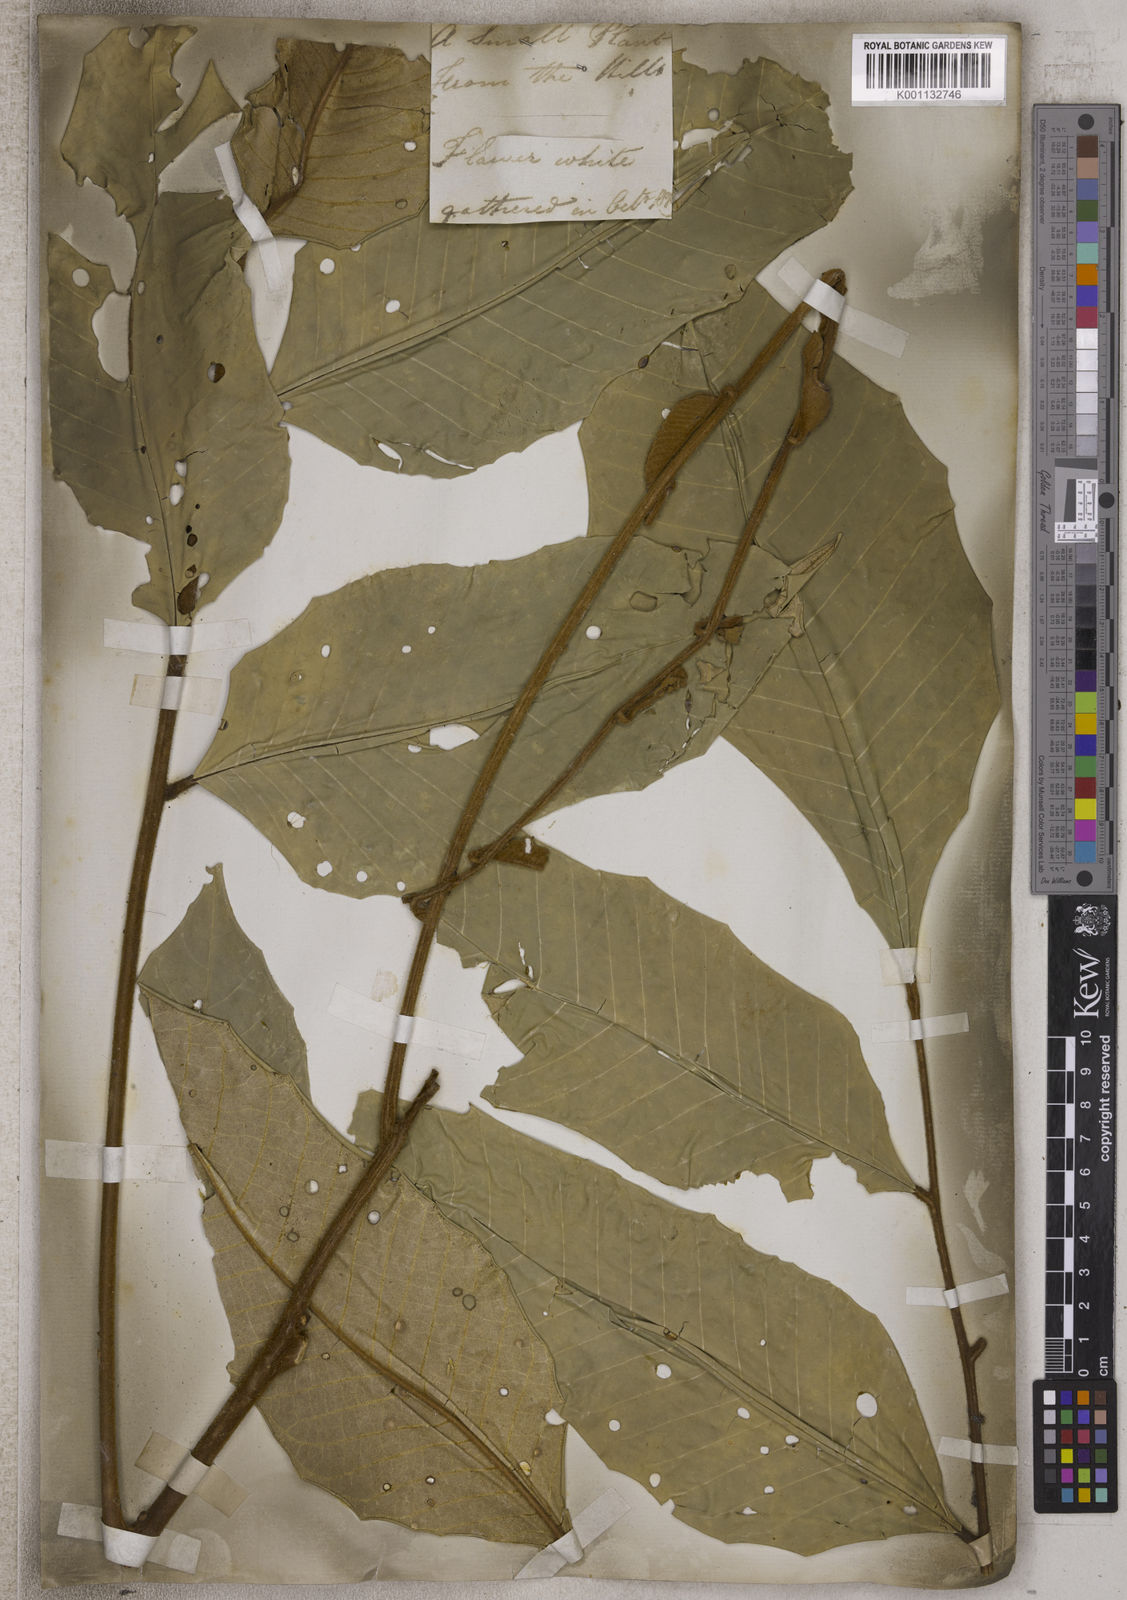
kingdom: Plantae
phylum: Tracheophyta
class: Magnoliopsida
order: Sapindales
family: Meliaceae
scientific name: Meliaceae
